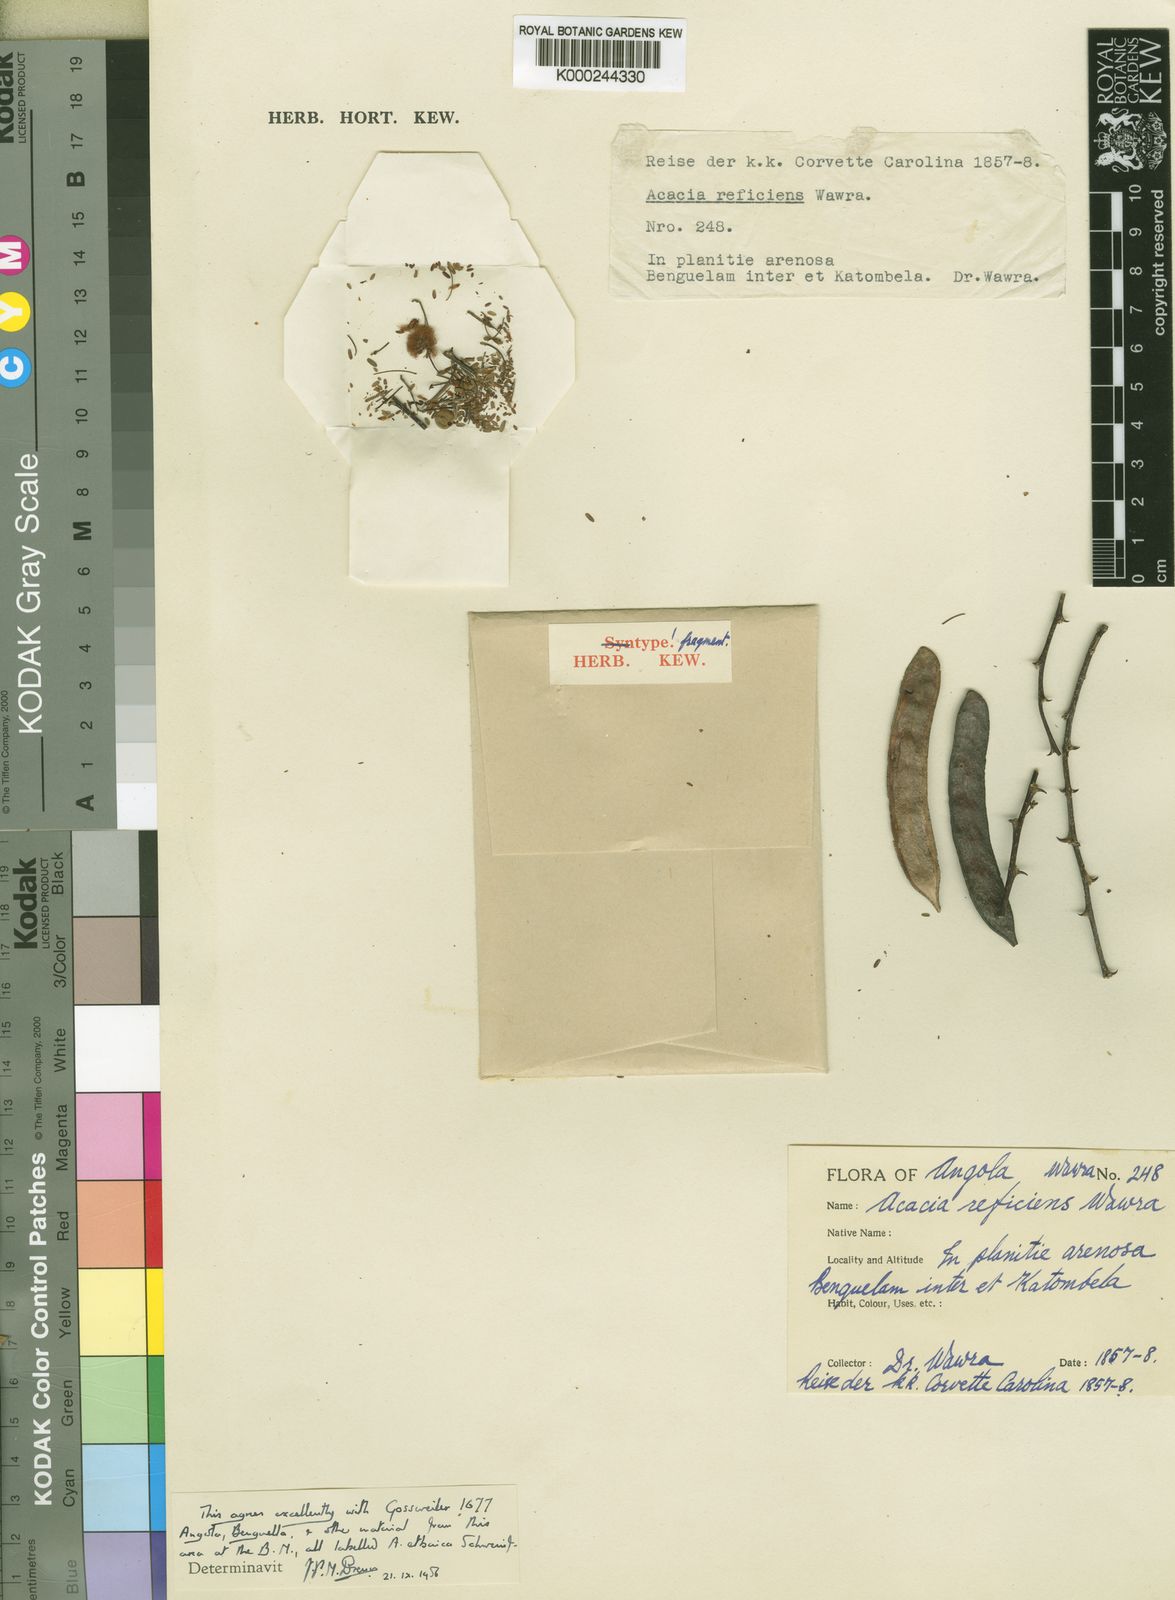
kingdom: Plantae
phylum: Tracheophyta
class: Magnoliopsida
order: Fabales
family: Fabaceae
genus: Vachellia
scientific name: Vachellia reficiens
